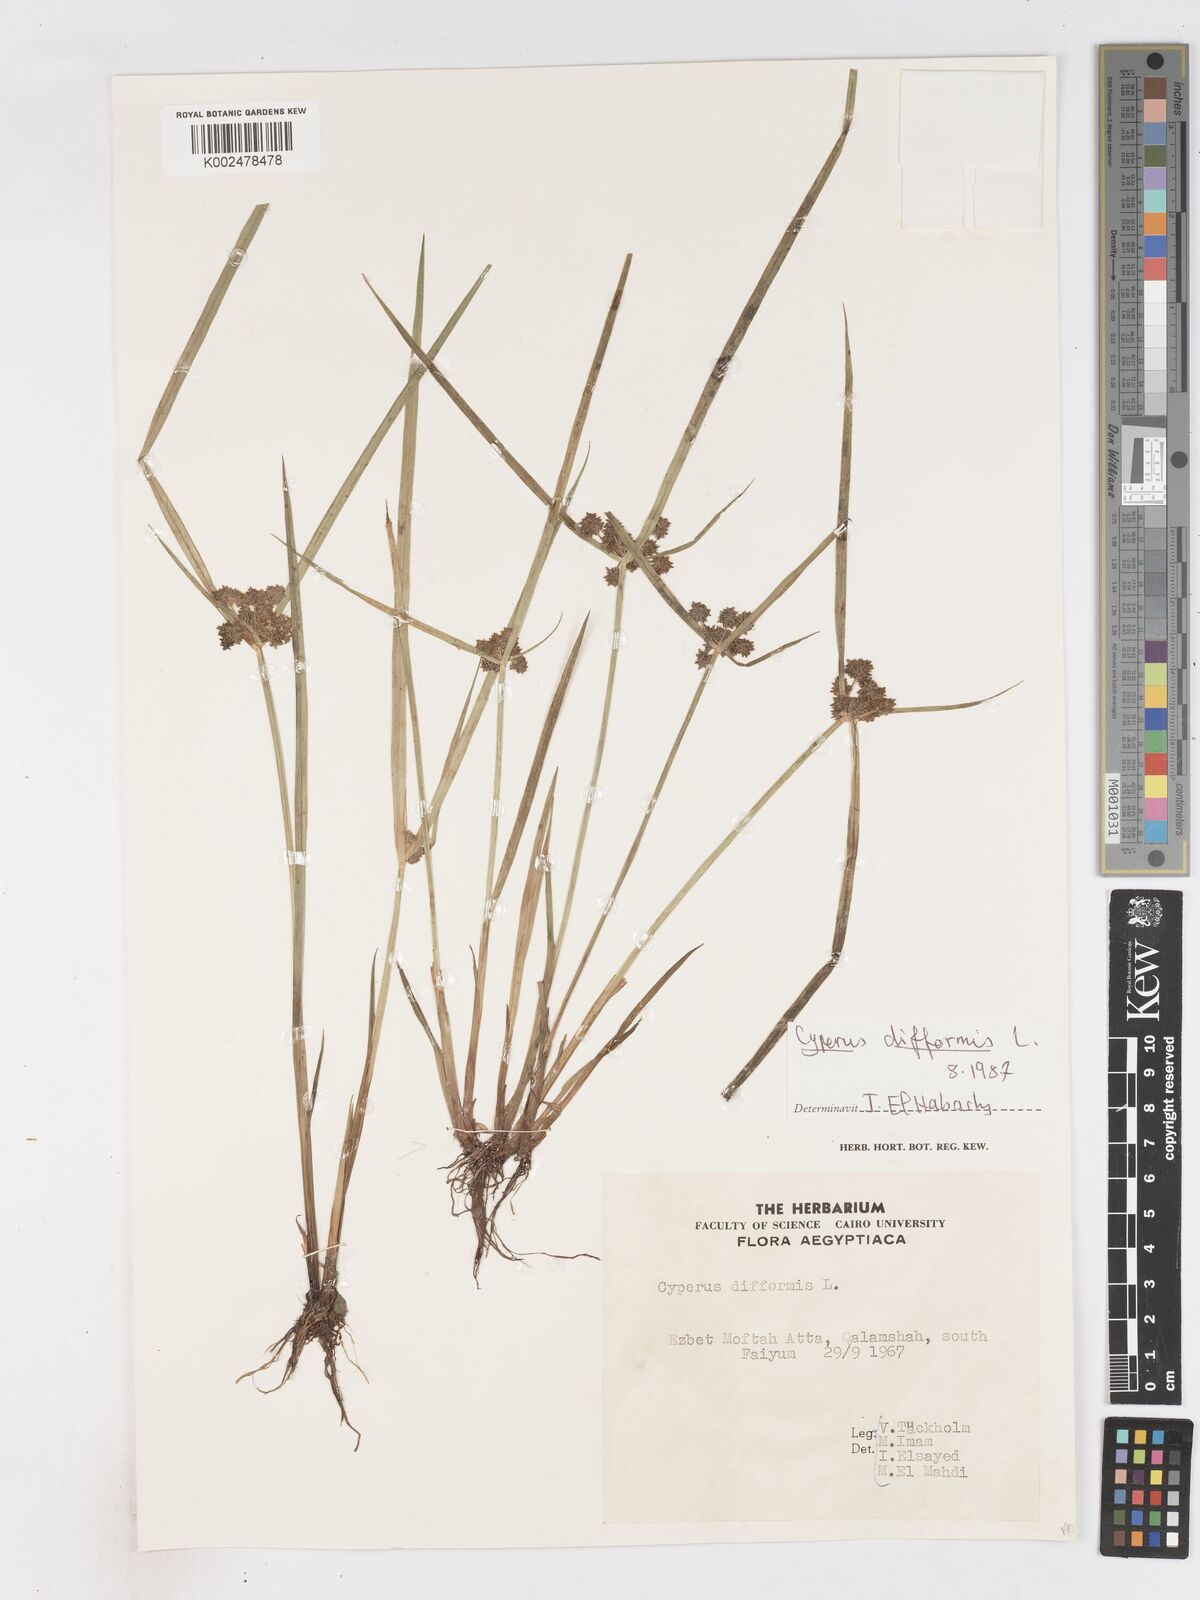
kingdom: Plantae
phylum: Tracheophyta
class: Liliopsida
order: Poales
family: Cyperaceae
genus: Cyperus
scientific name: Cyperus difformis
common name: Variable flatsedge
